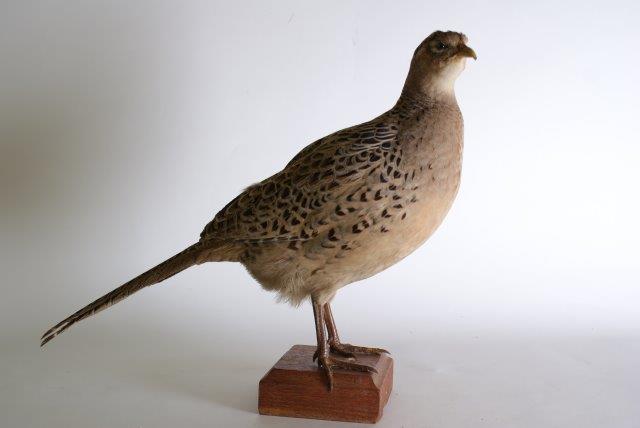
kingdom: Animalia
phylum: Chordata
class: Aves
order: Galliformes
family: Phasianidae
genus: Phasianus
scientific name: Phasianus colchicus
